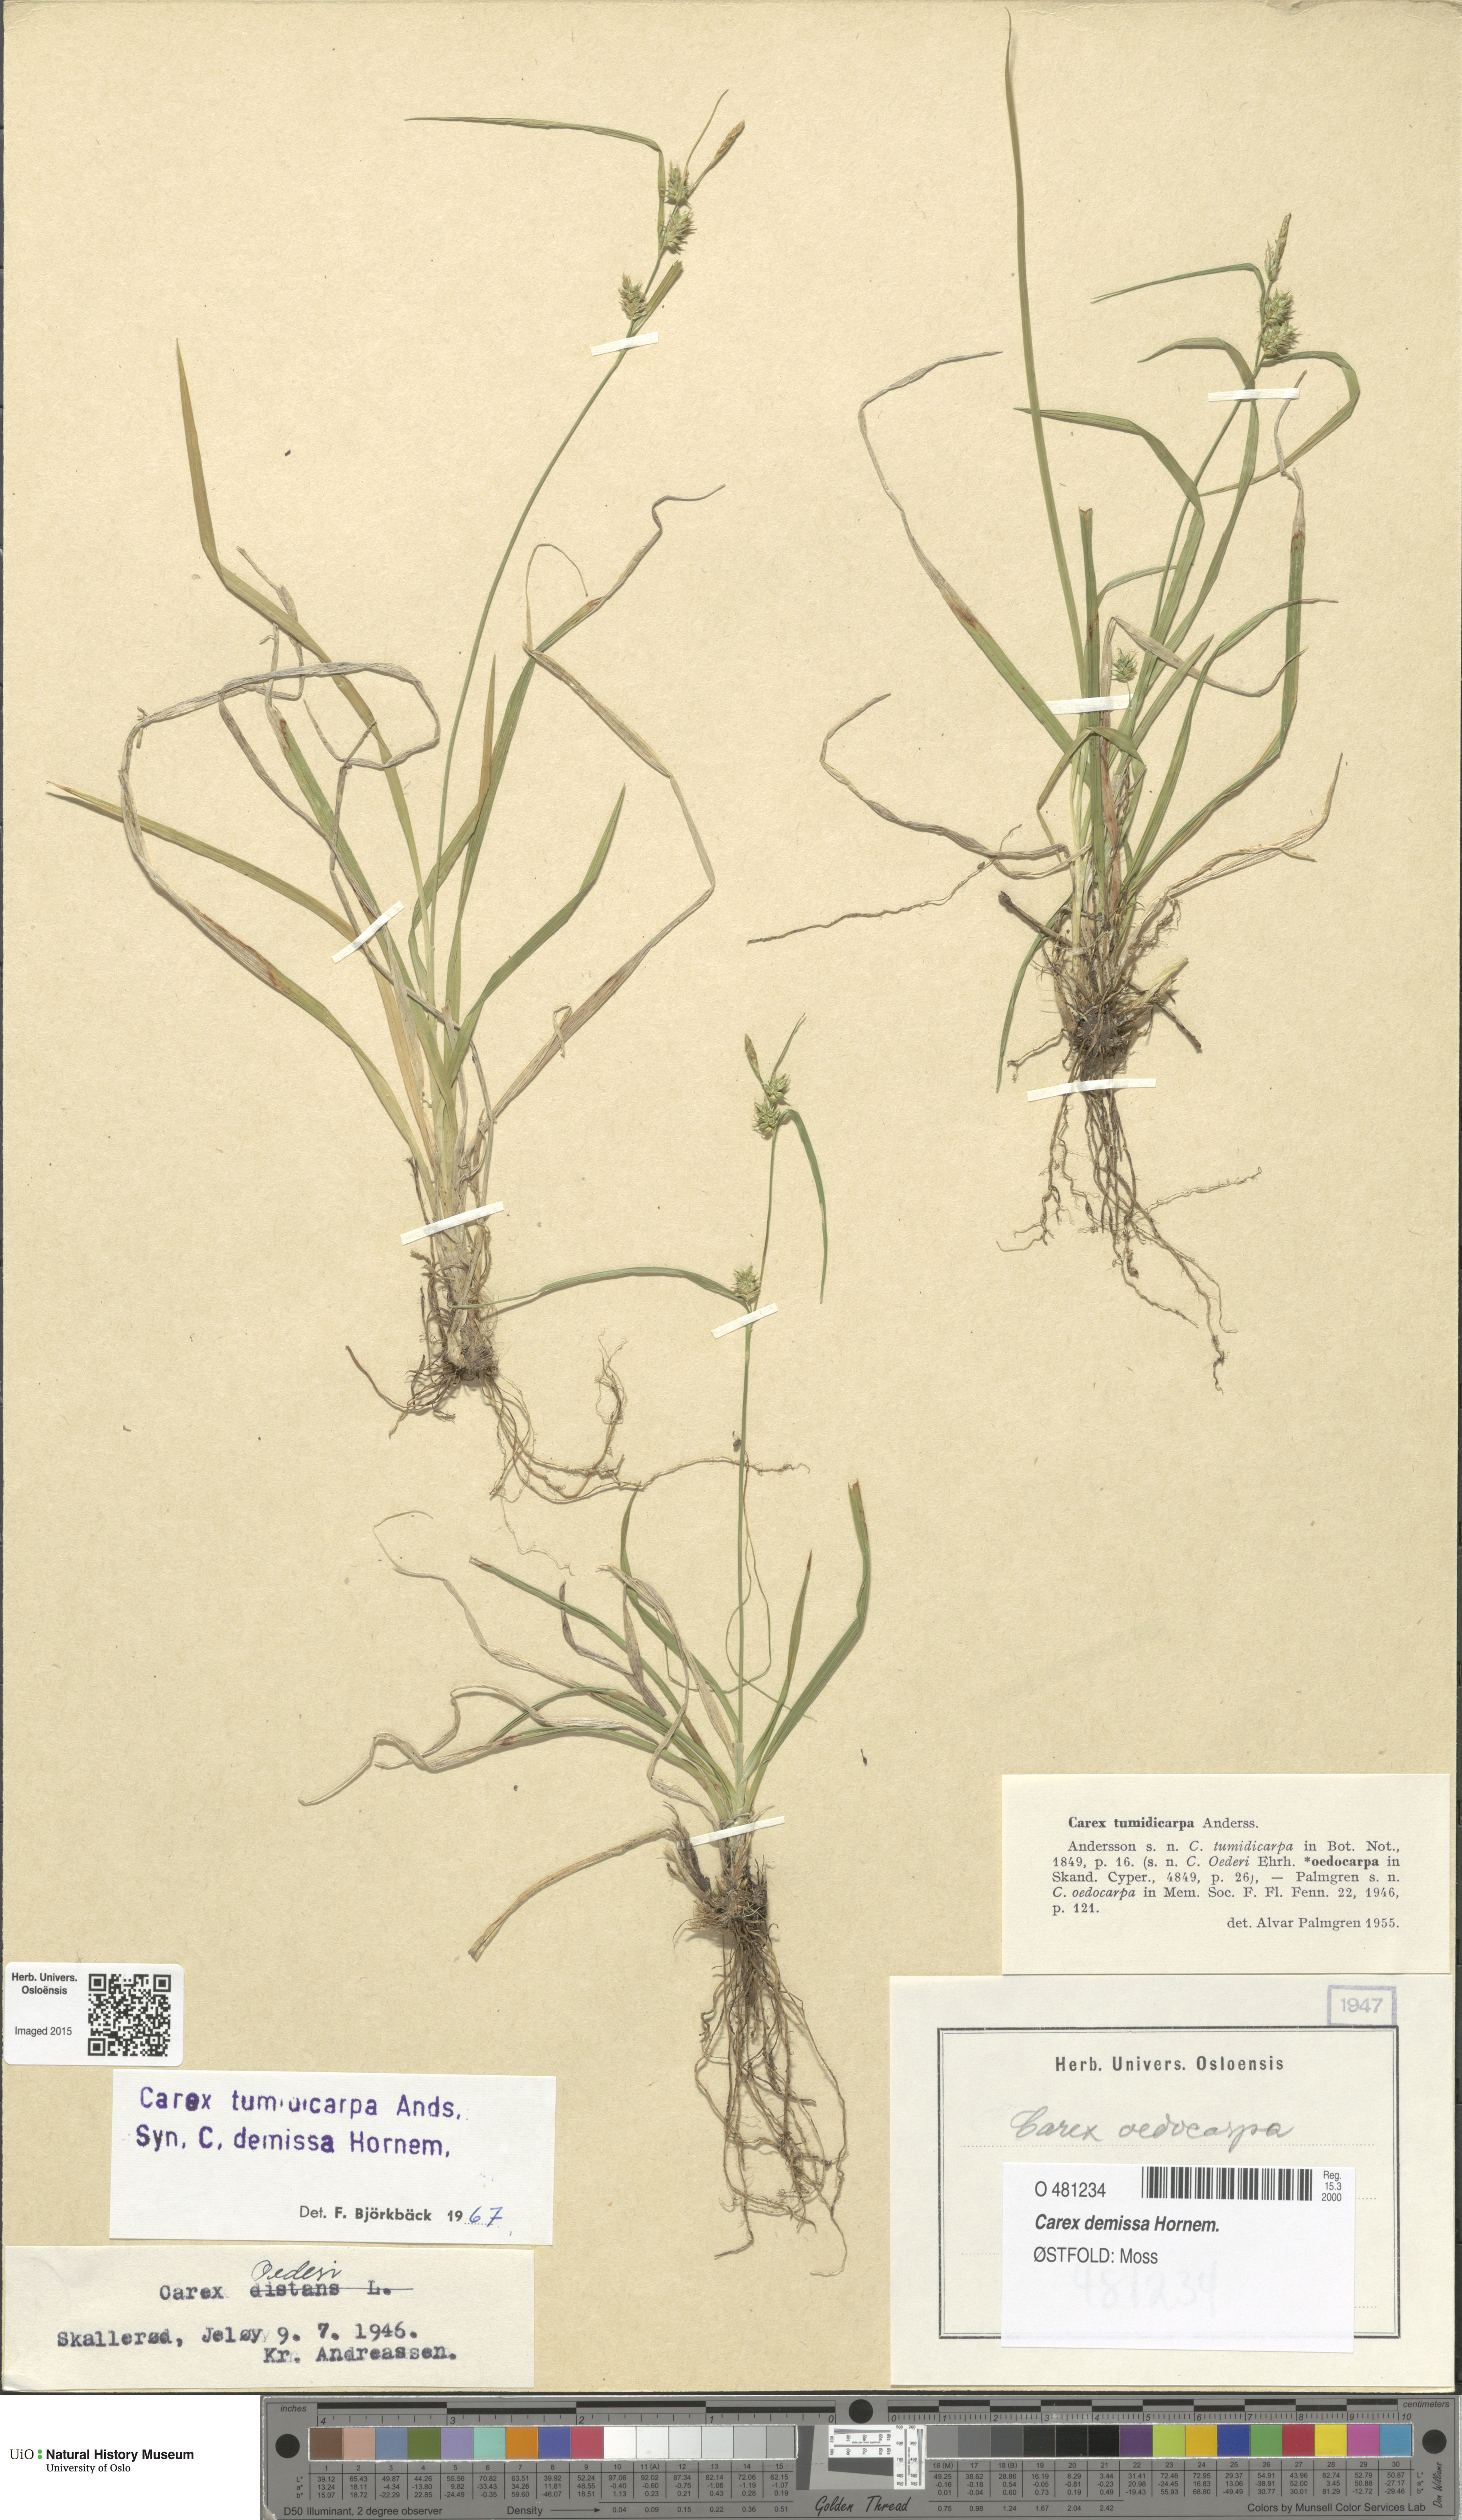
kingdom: Plantae
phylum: Tracheophyta
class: Liliopsida
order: Poales
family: Cyperaceae
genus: Carex
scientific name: Carex demissa
